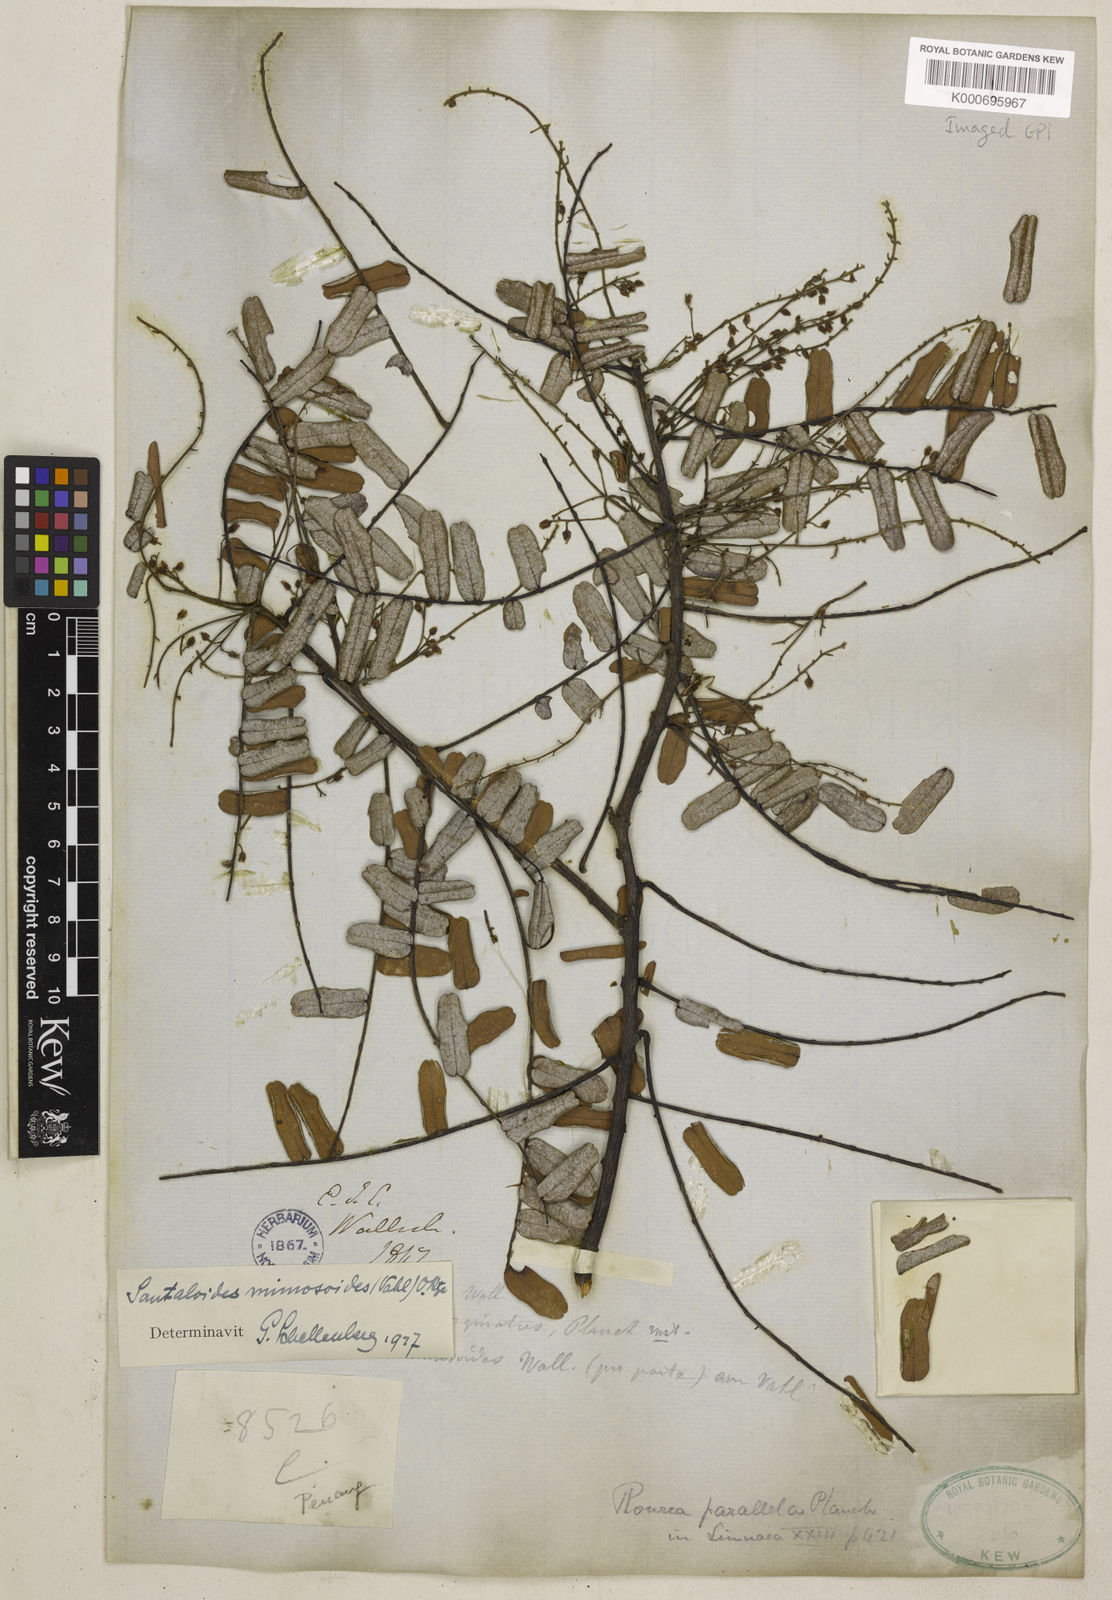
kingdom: Plantae
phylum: Tracheophyta
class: Magnoliopsida
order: Oxalidales
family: Connaraceae
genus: Rourea
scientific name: Rourea mimosoides
